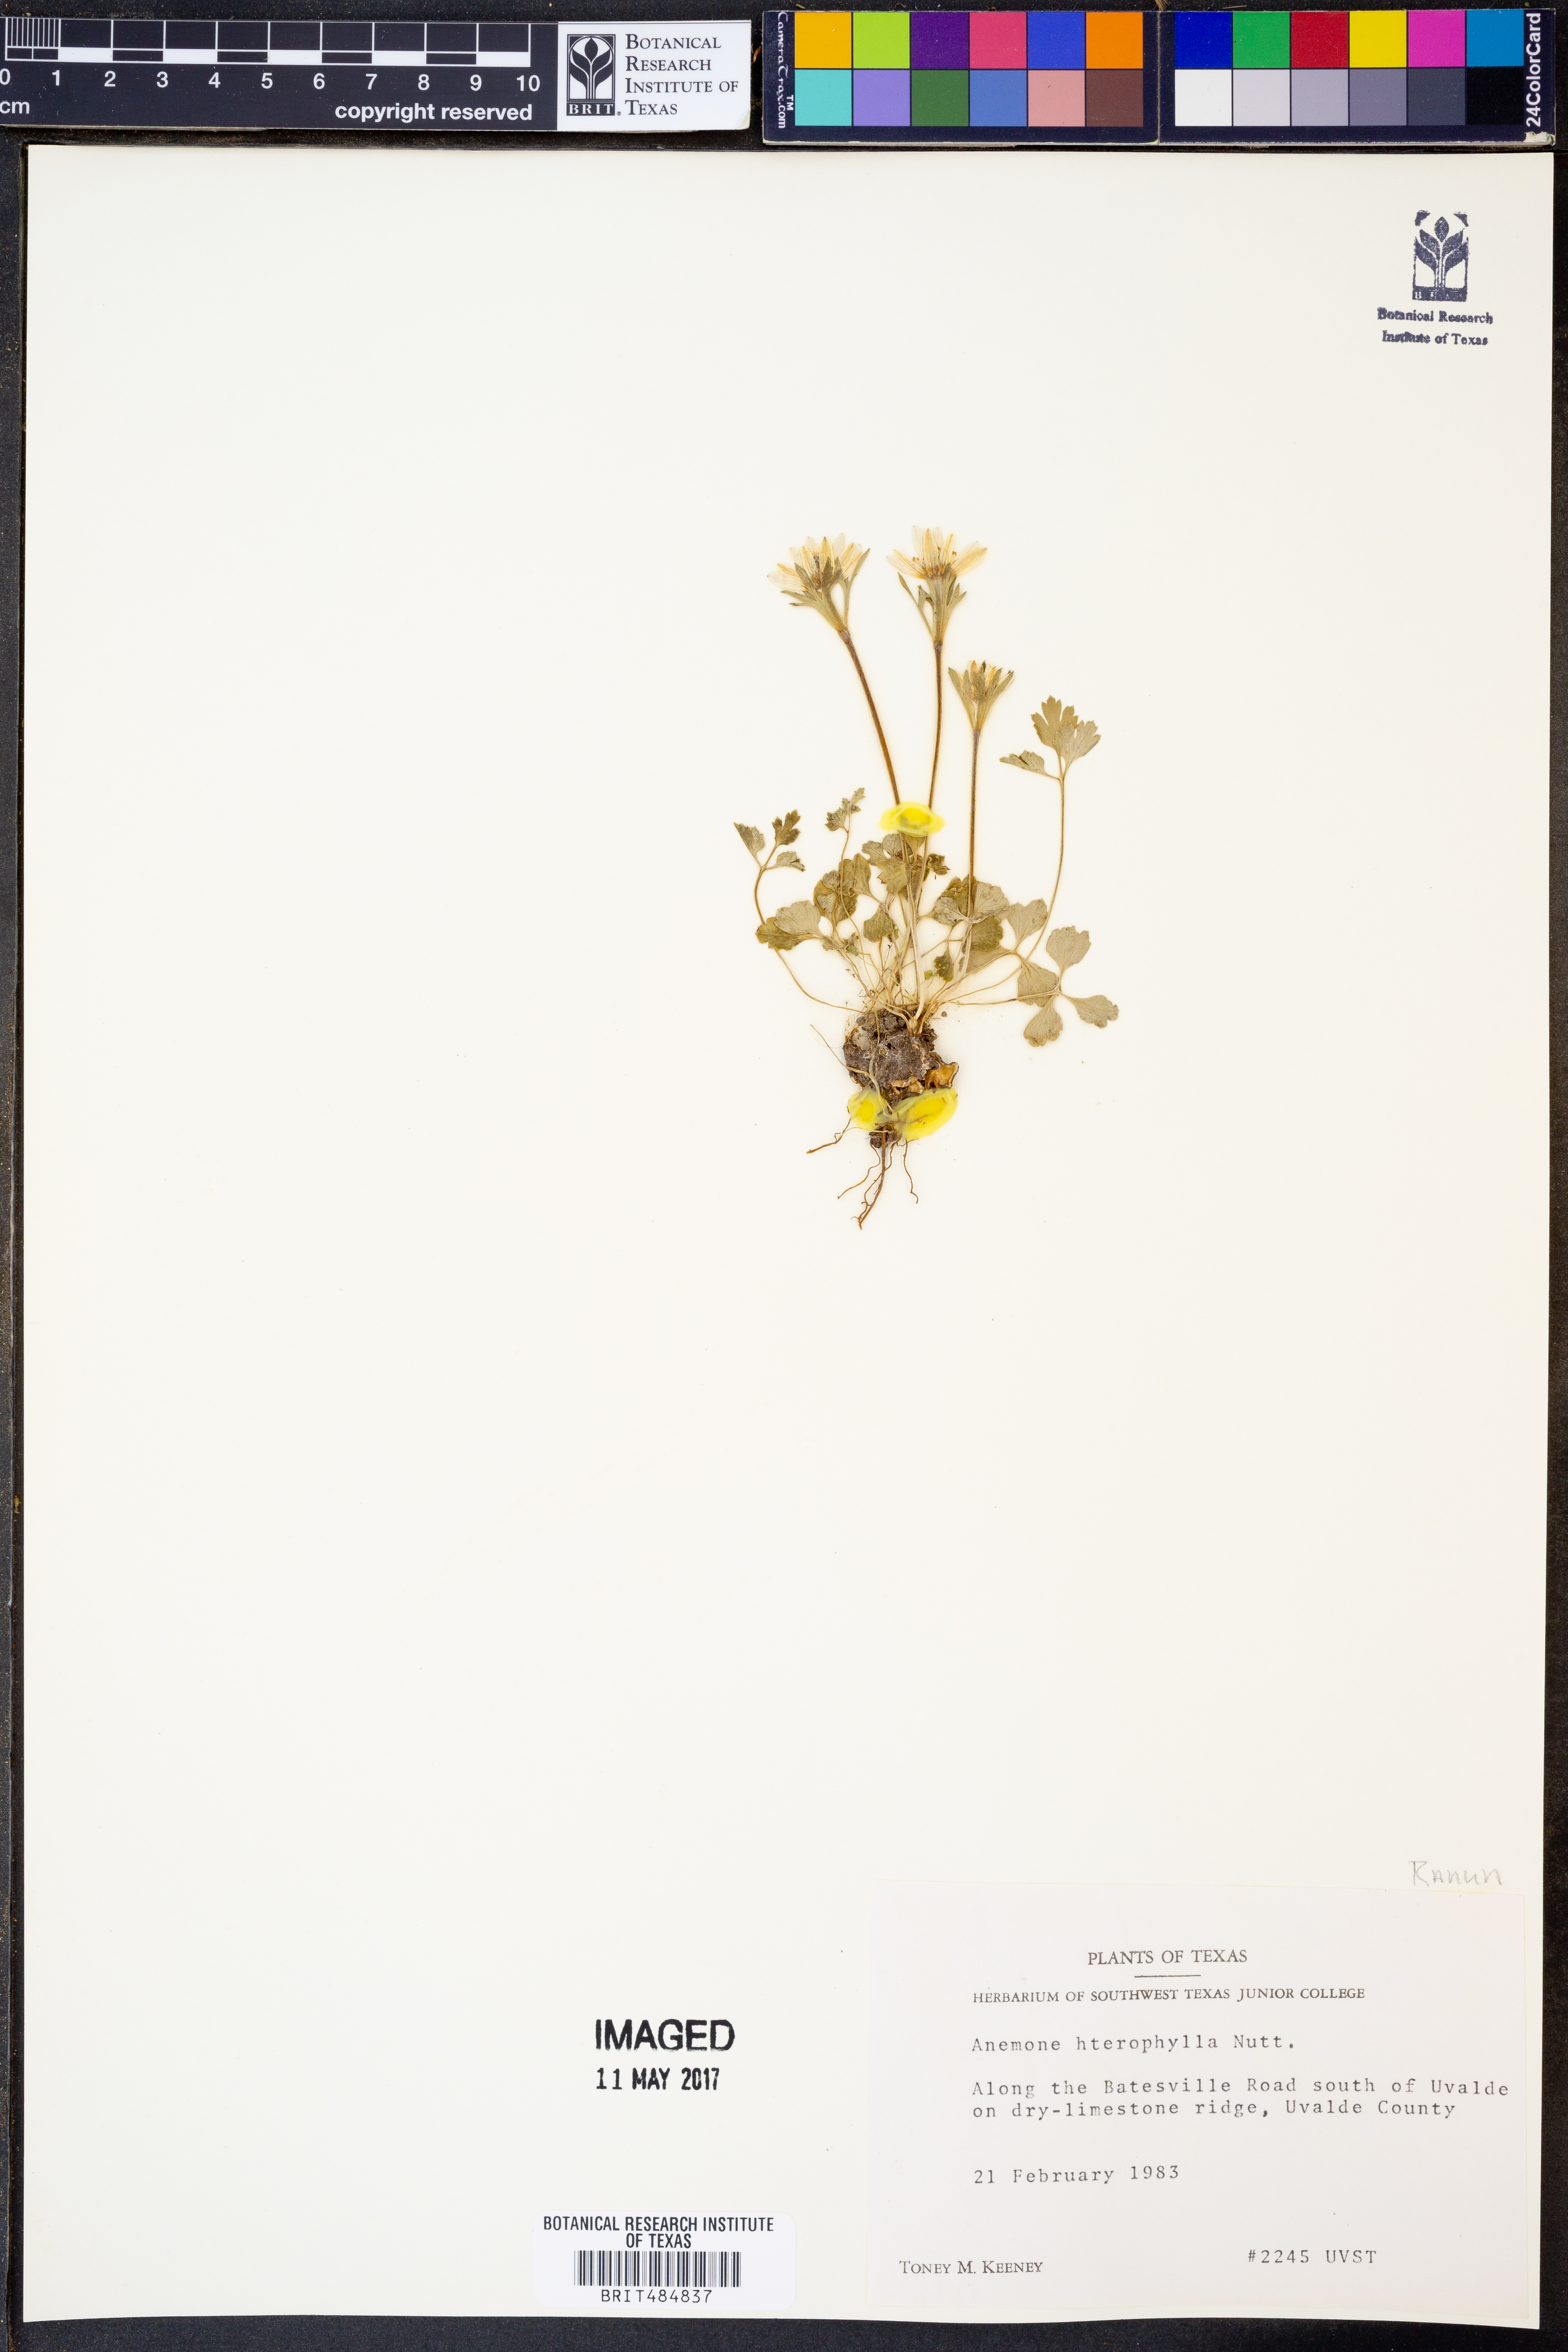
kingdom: Plantae
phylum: Tracheophyta
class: Magnoliopsida
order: Ranunculales
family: Ranunculaceae
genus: Anemone
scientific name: Anemone heterophylla
